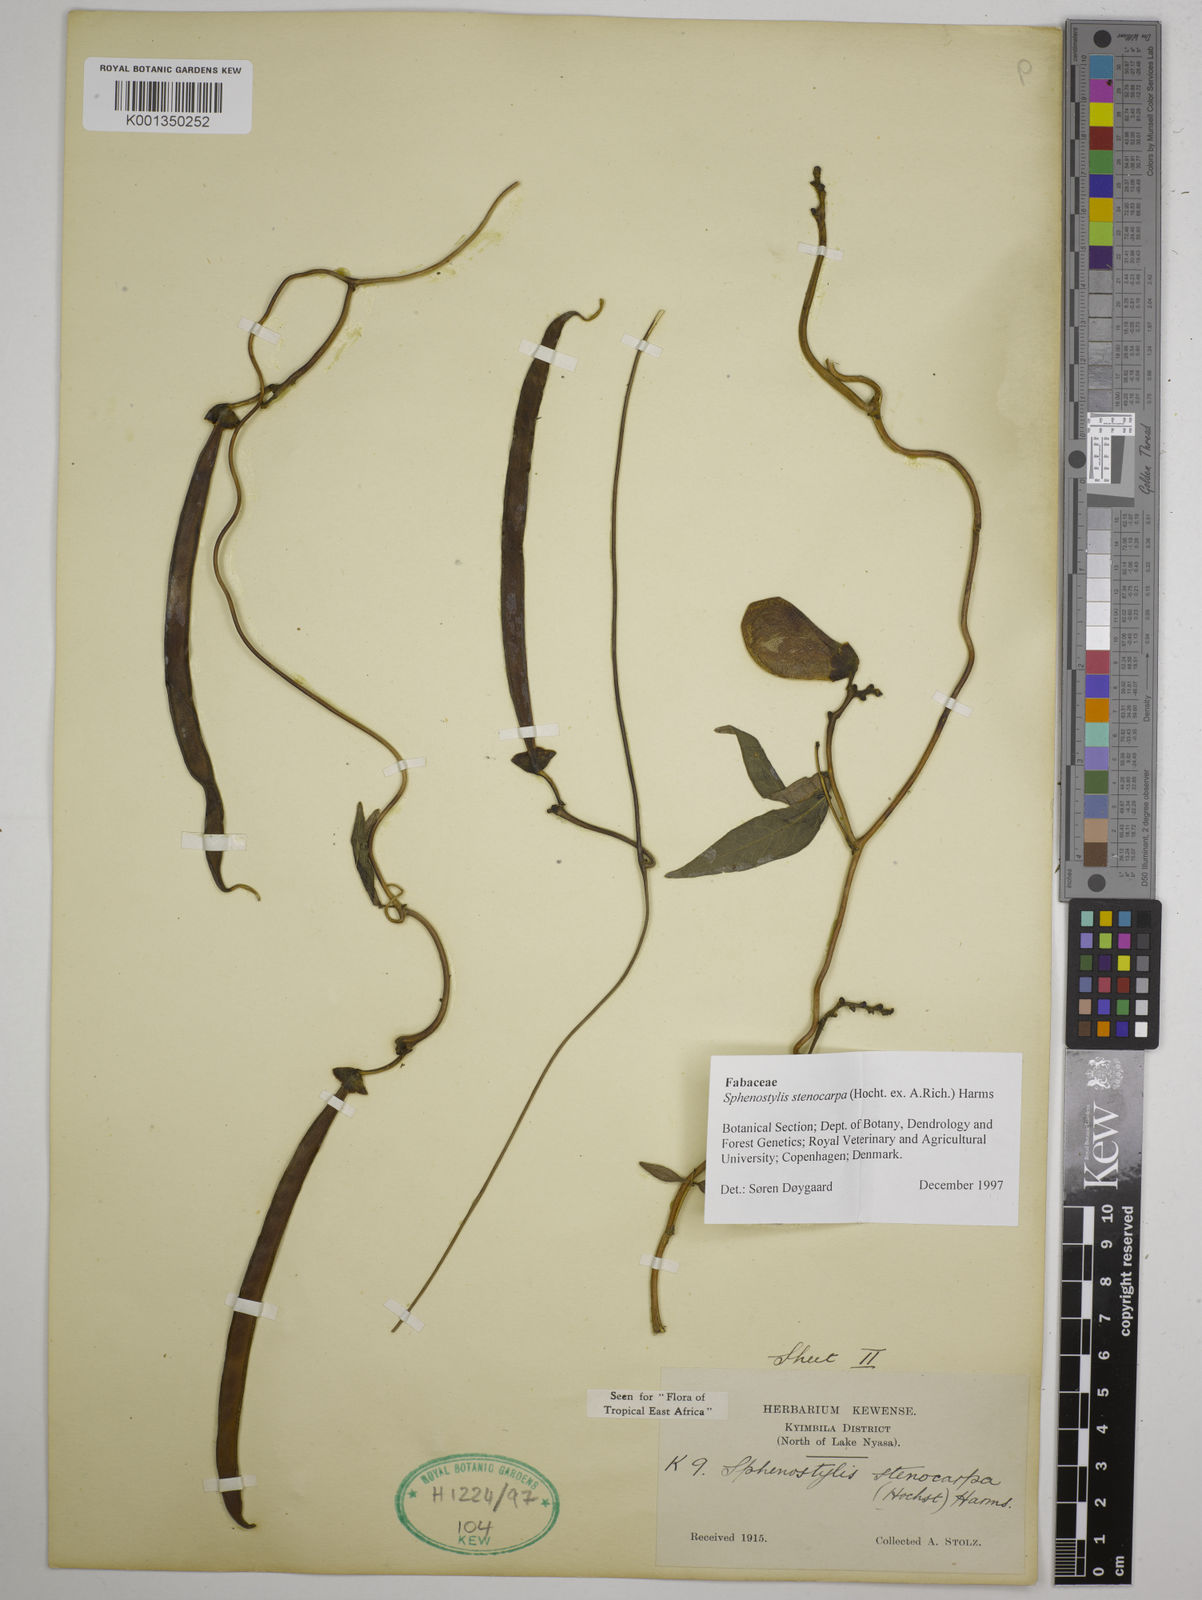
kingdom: Plantae
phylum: Tracheophyta
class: Magnoliopsida
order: Fabales
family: Fabaceae
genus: Sphenostylis
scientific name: Sphenostylis stenocarpa
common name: Yam-pea
